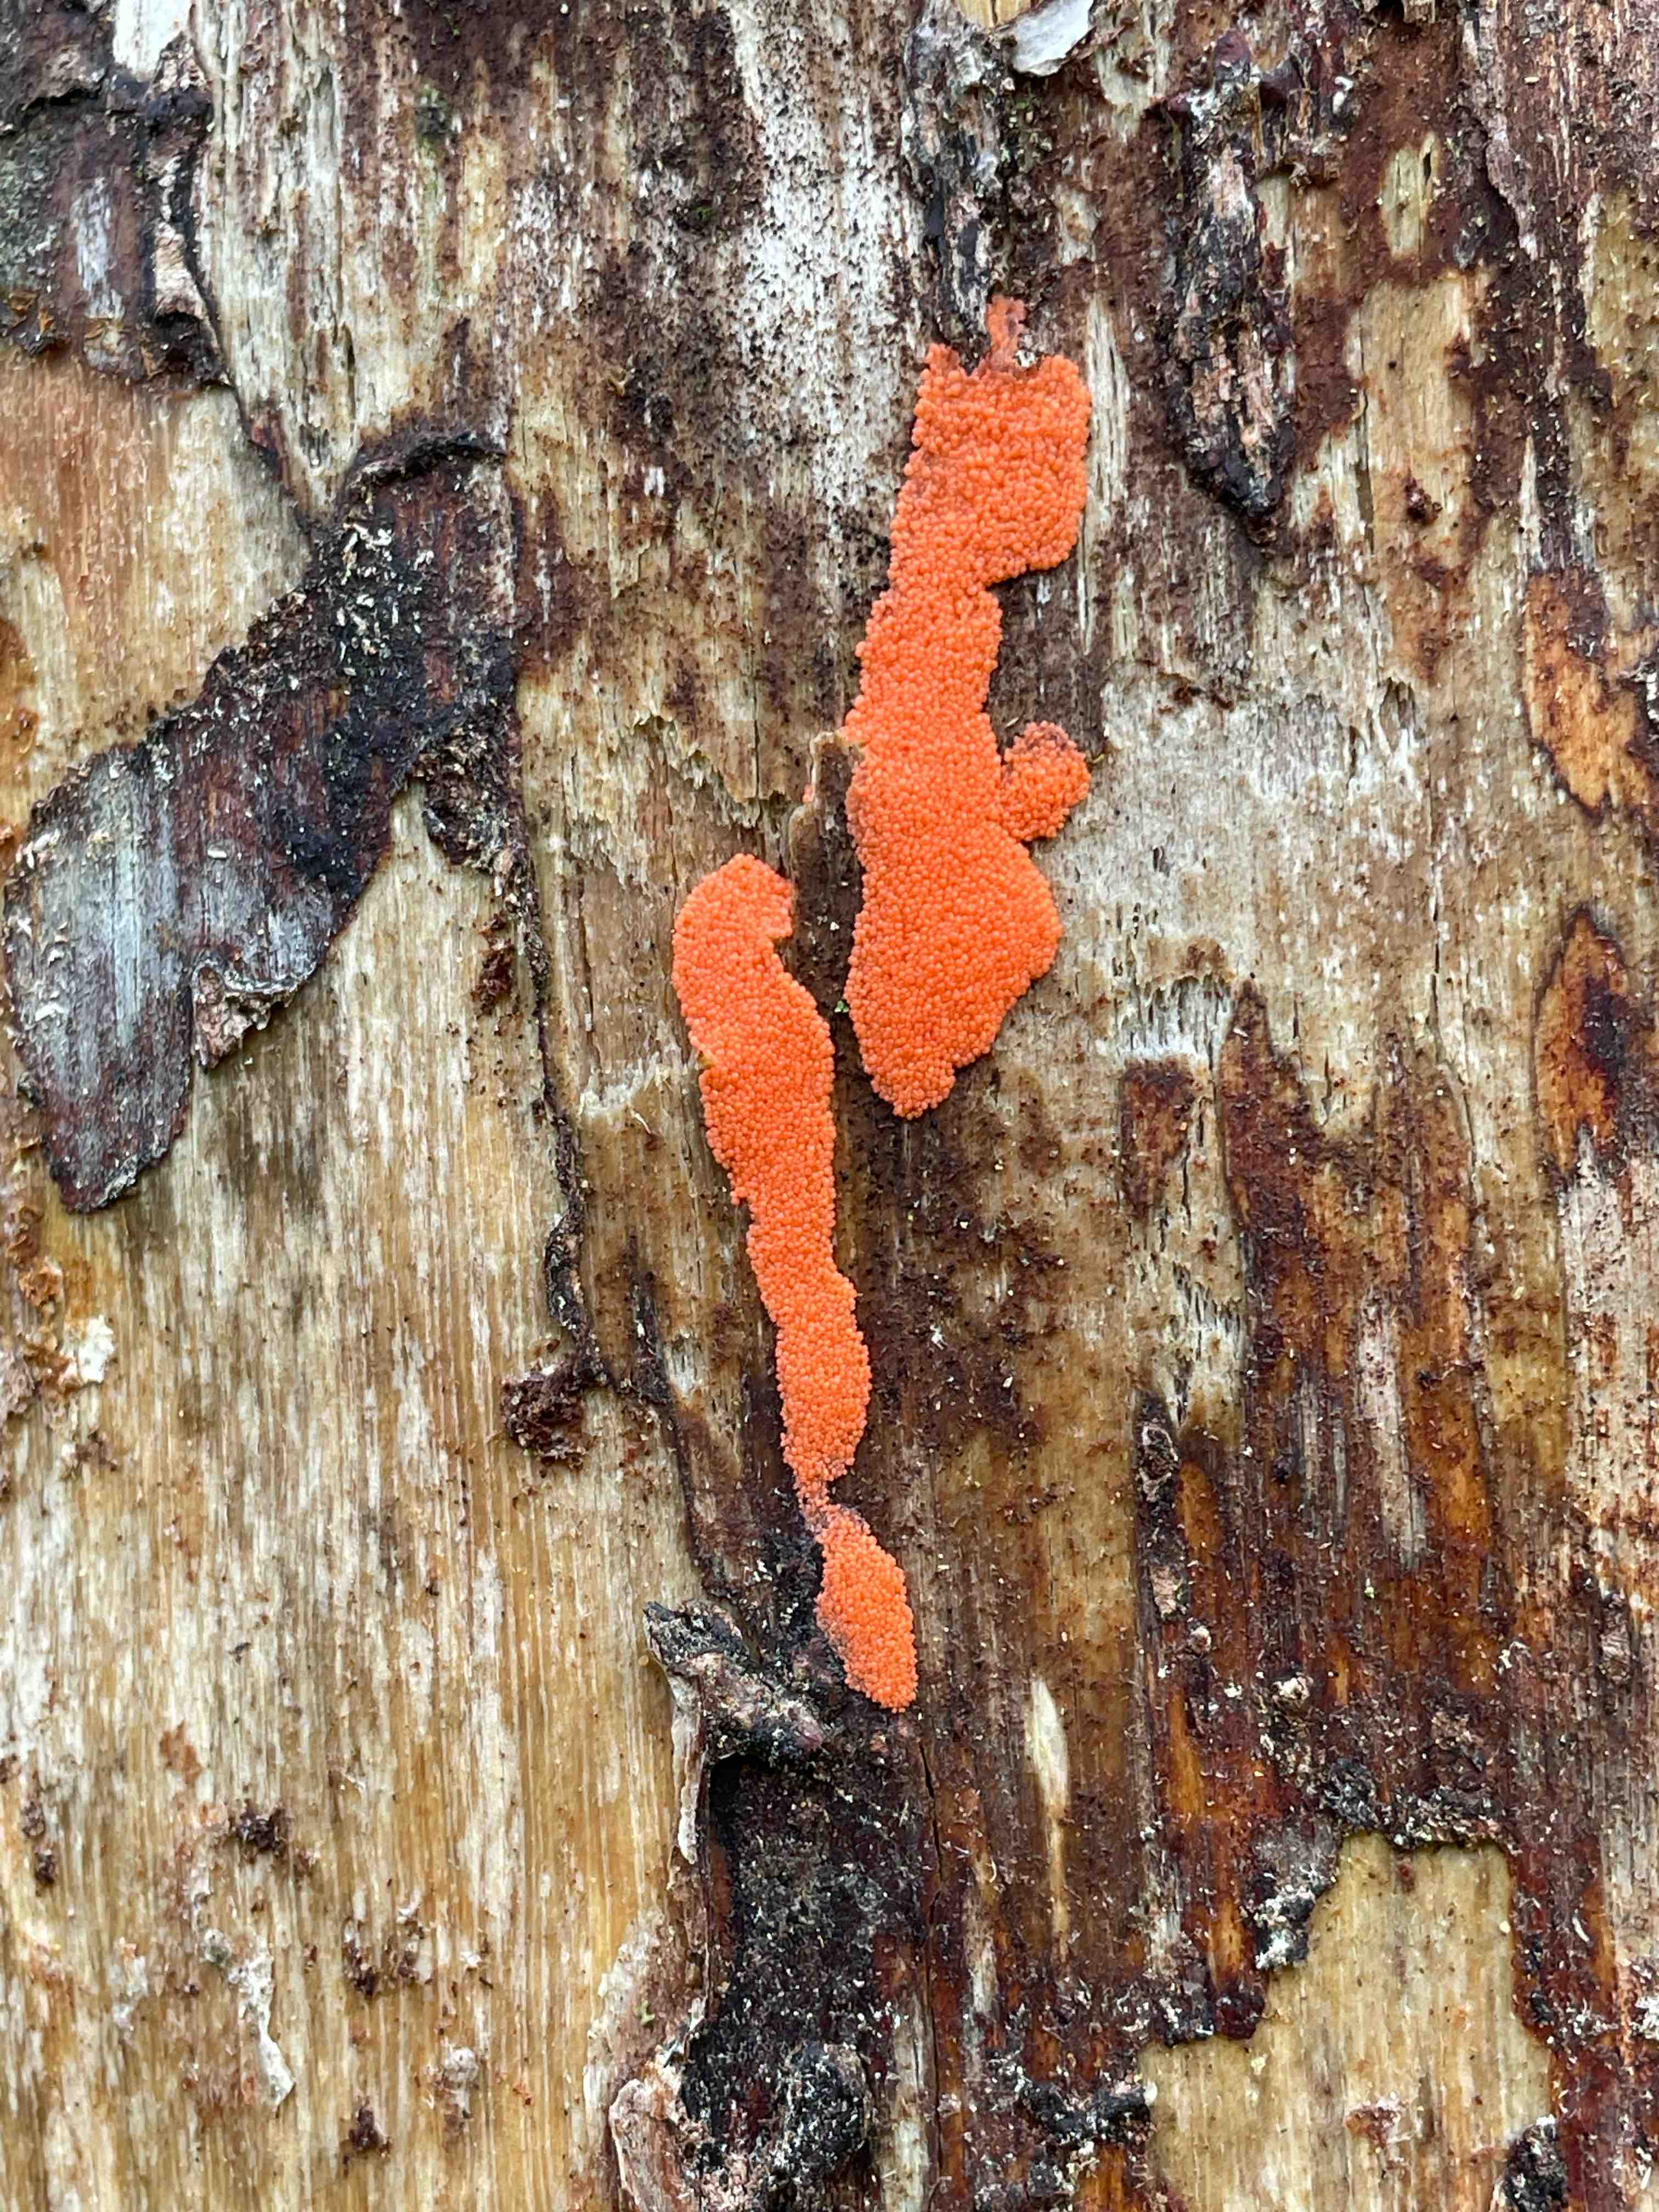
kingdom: Protozoa
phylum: Mycetozoa
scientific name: Mycetozoa
